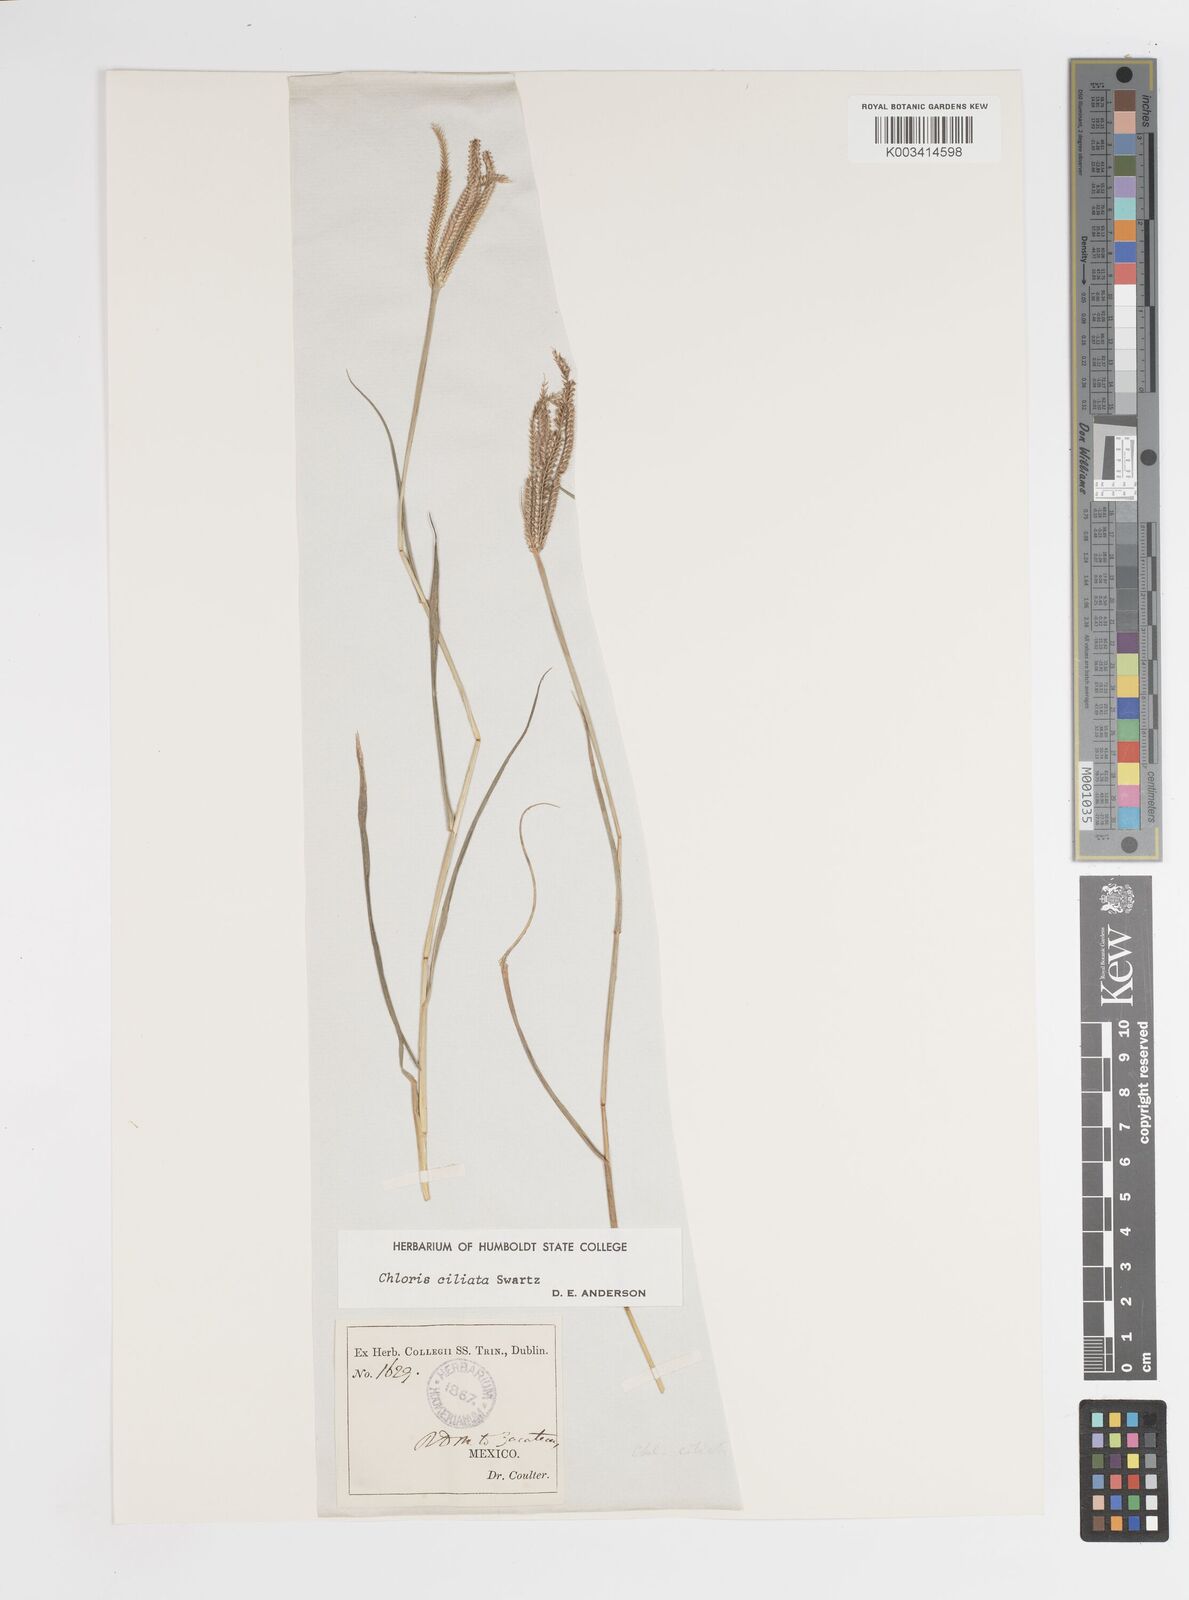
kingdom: Plantae
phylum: Tracheophyta
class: Liliopsida
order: Poales
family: Poaceae
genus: Stapfochloa
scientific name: Stapfochloa ciliata
